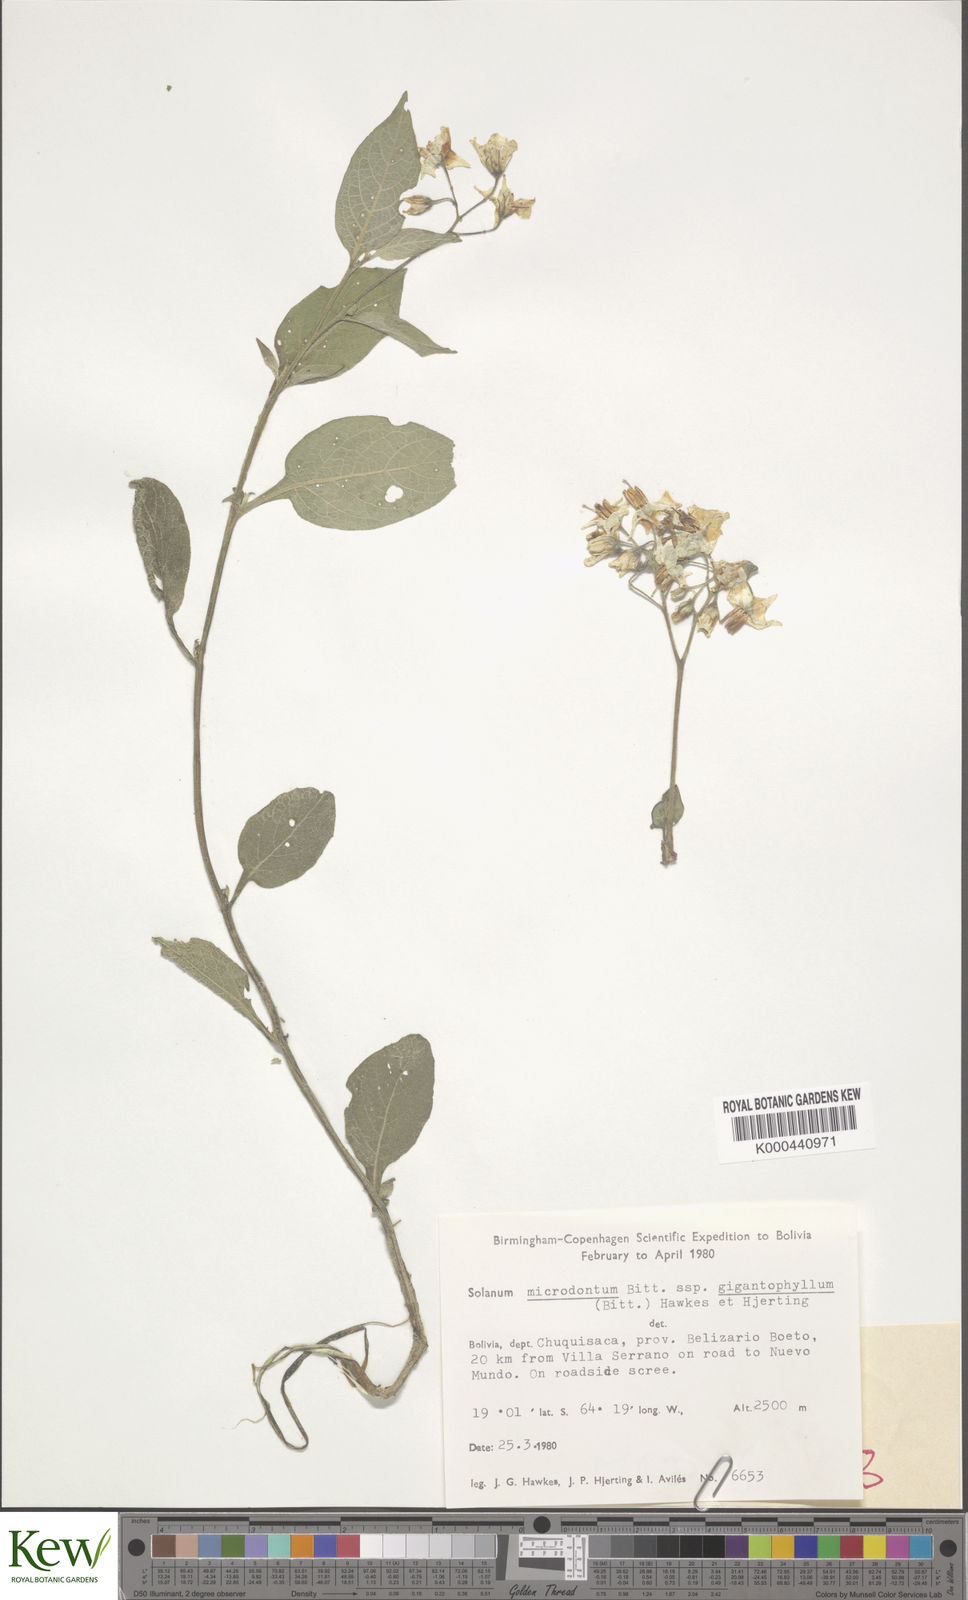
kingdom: Plantae
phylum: Tracheophyta
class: Magnoliopsida
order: Solanales
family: Solanaceae
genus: Solanum
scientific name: Solanum microdontum
